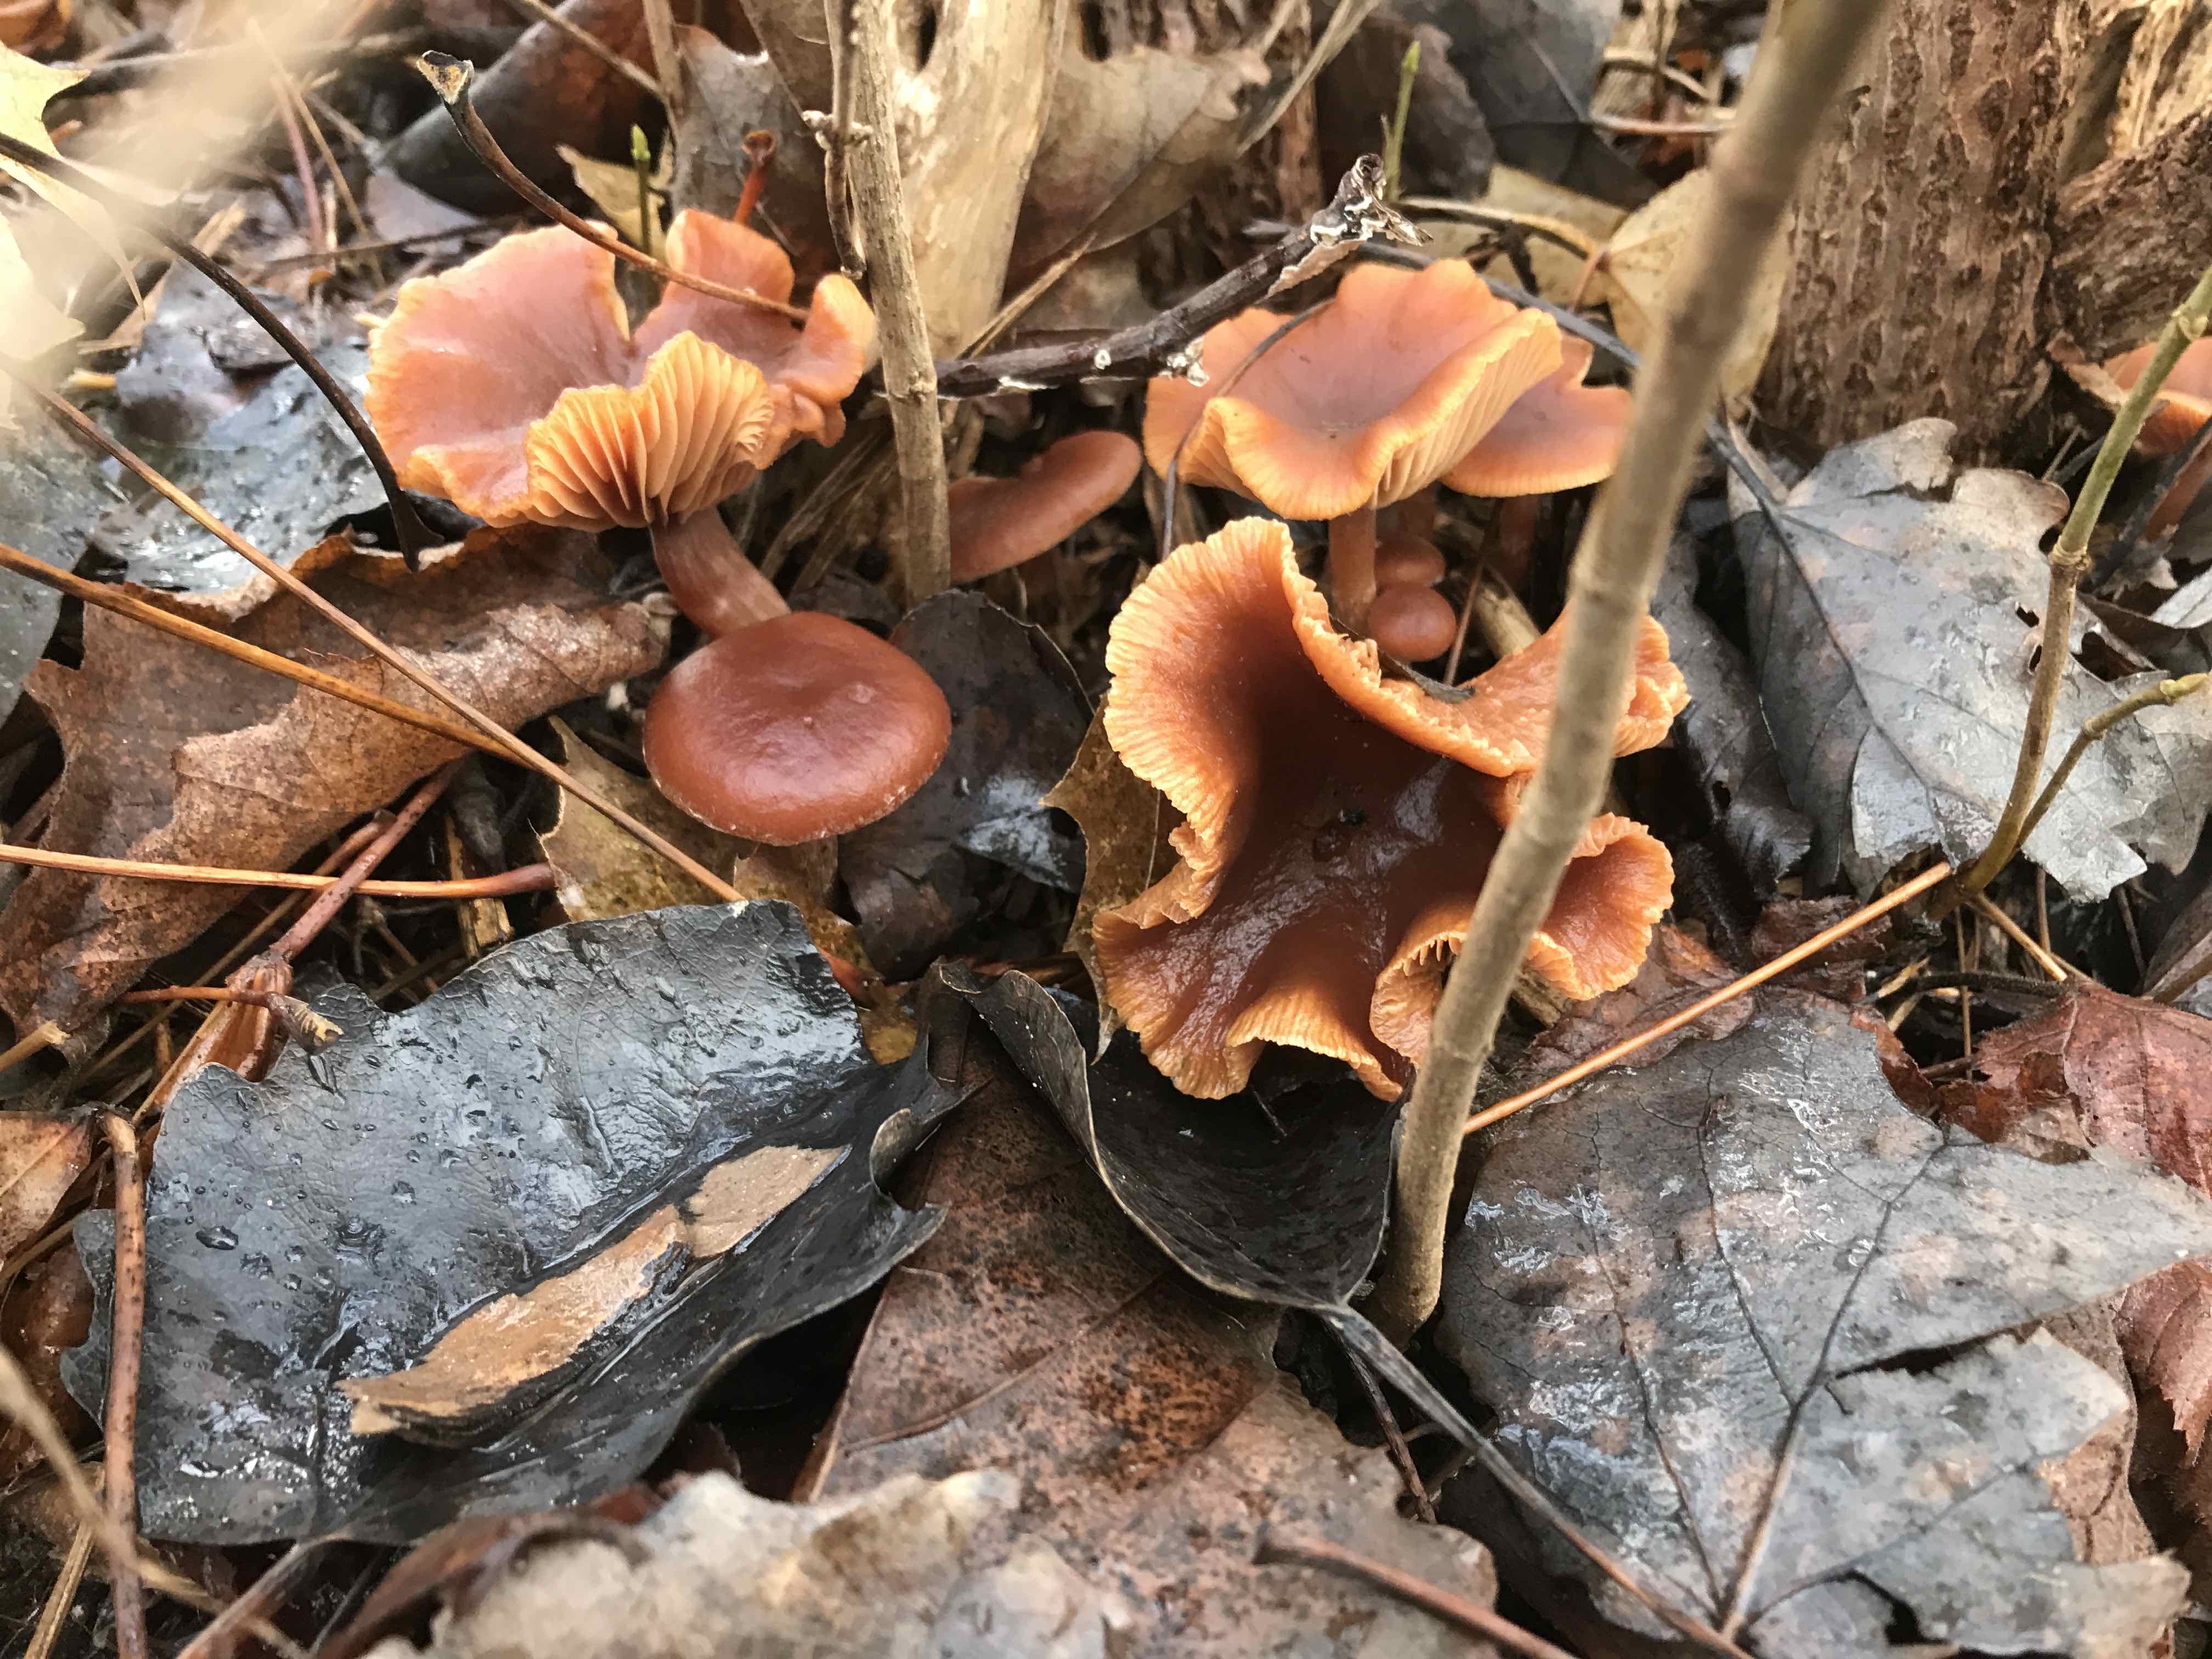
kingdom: Fungi
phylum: Basidiomycota
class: Agaricomycetes
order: Agaricales
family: Tubariaceae
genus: Tubaria
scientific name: Tubaria furfuracea
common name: kliddet fnughat
